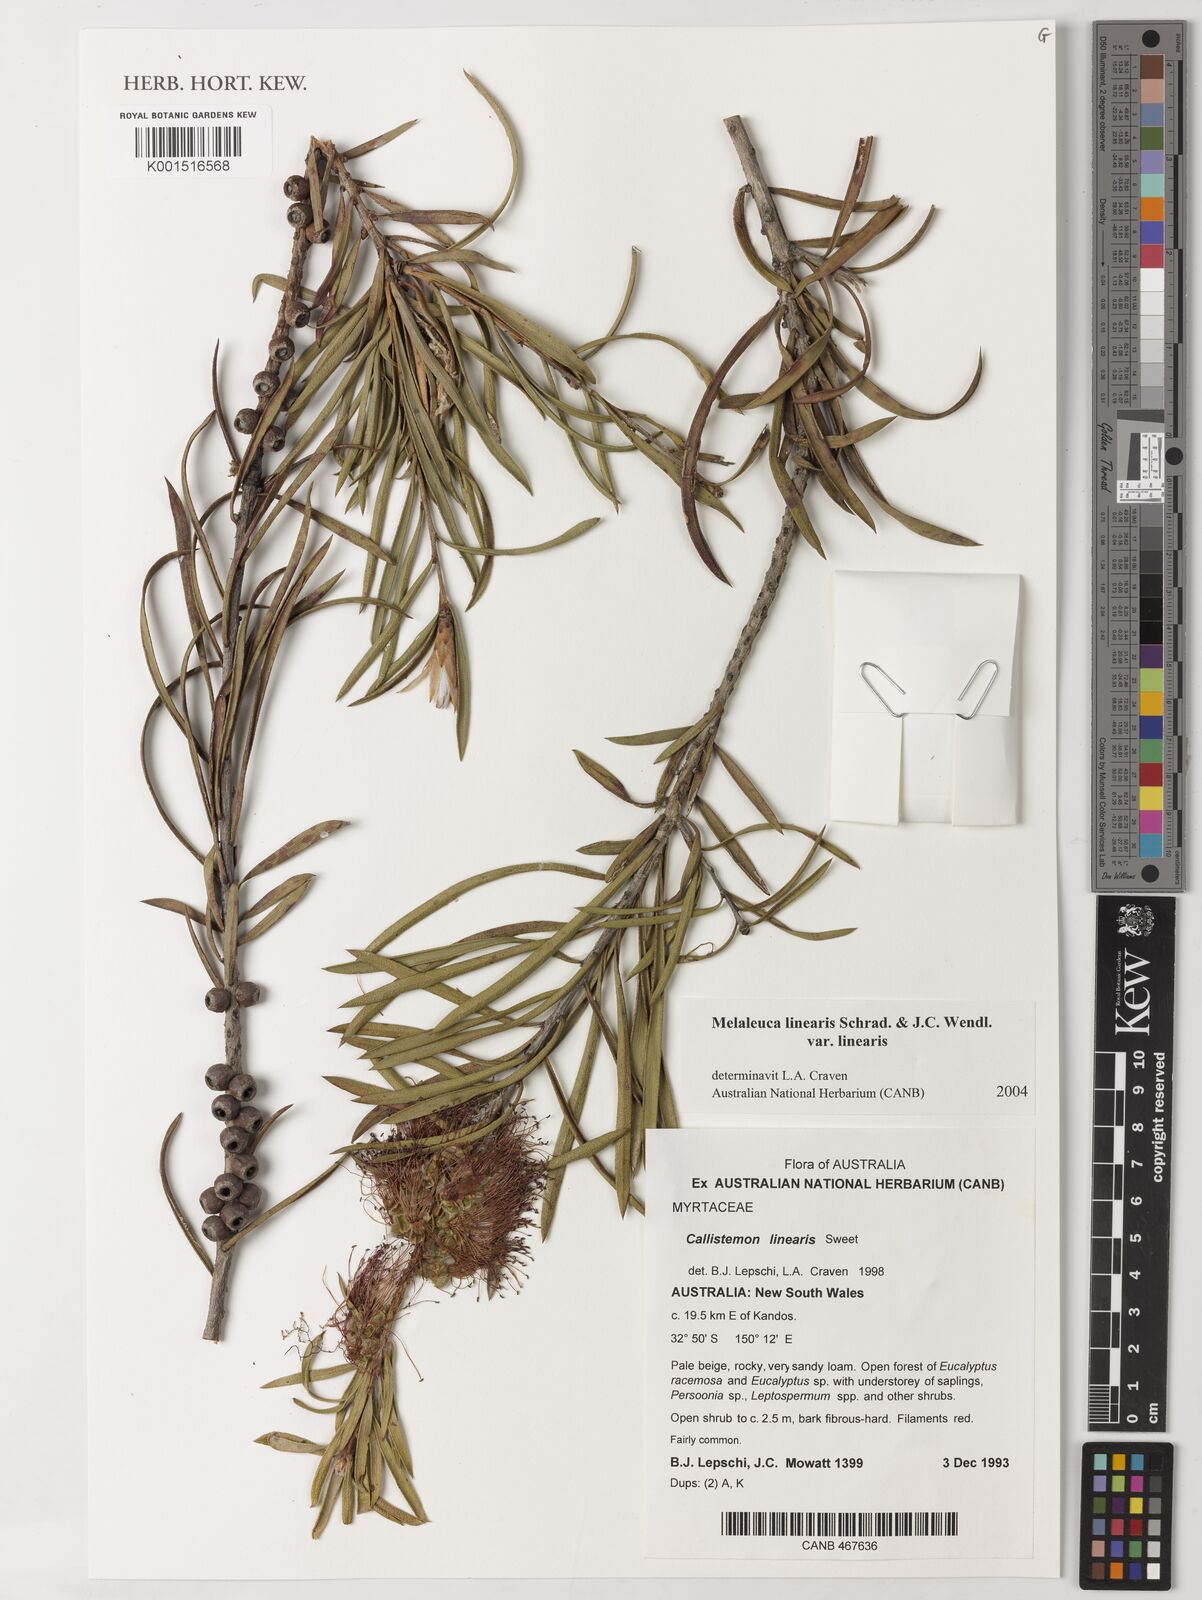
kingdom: Plantae
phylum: Tracheophyta
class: Magnoliopsida
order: Myrtales
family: Myrtaceae
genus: Callistemon
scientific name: Callistemon linearis
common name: Narrow-leaf bottlebrush
